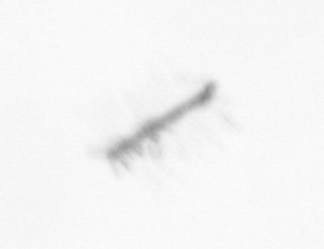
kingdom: Chromista
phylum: Ochrophyta
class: Bacillariophyceae
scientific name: Bacillariophyceae
